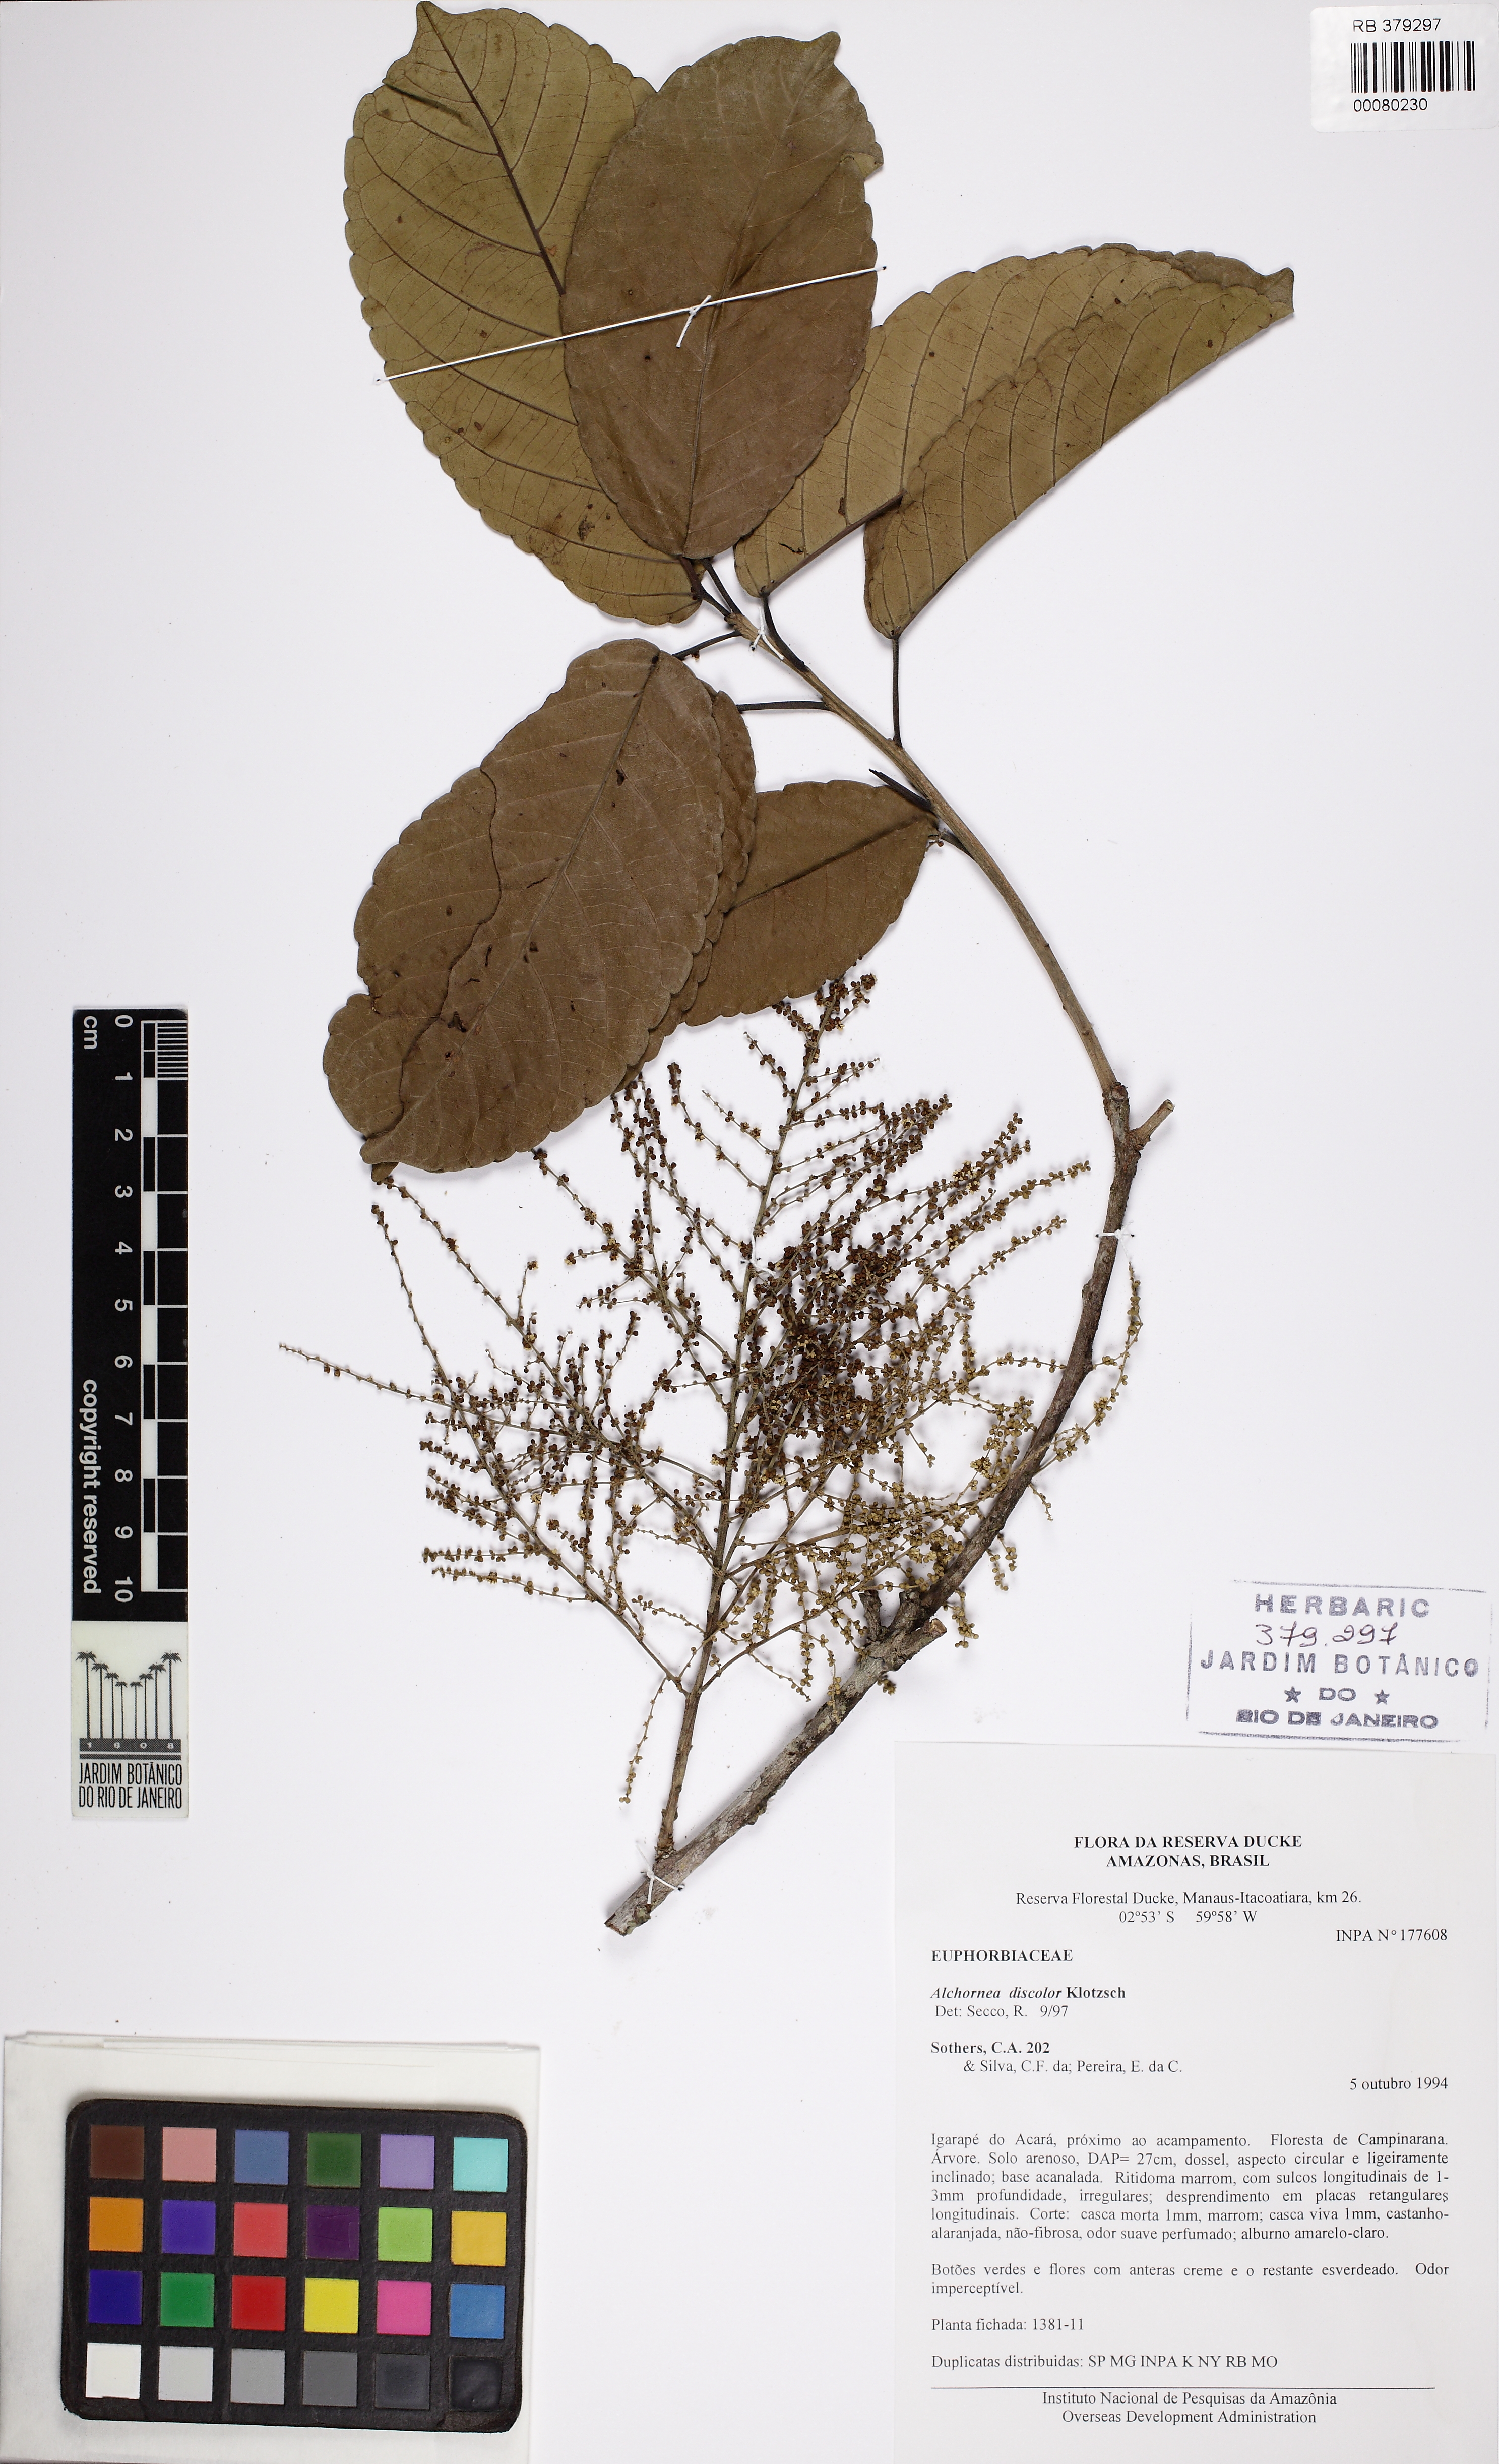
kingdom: Plantae
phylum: Tracheophyta
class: Magnoliopsida
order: Malpighiales
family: Euphorbiaceae
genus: Alchornea
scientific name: Alchornea glandulosa
